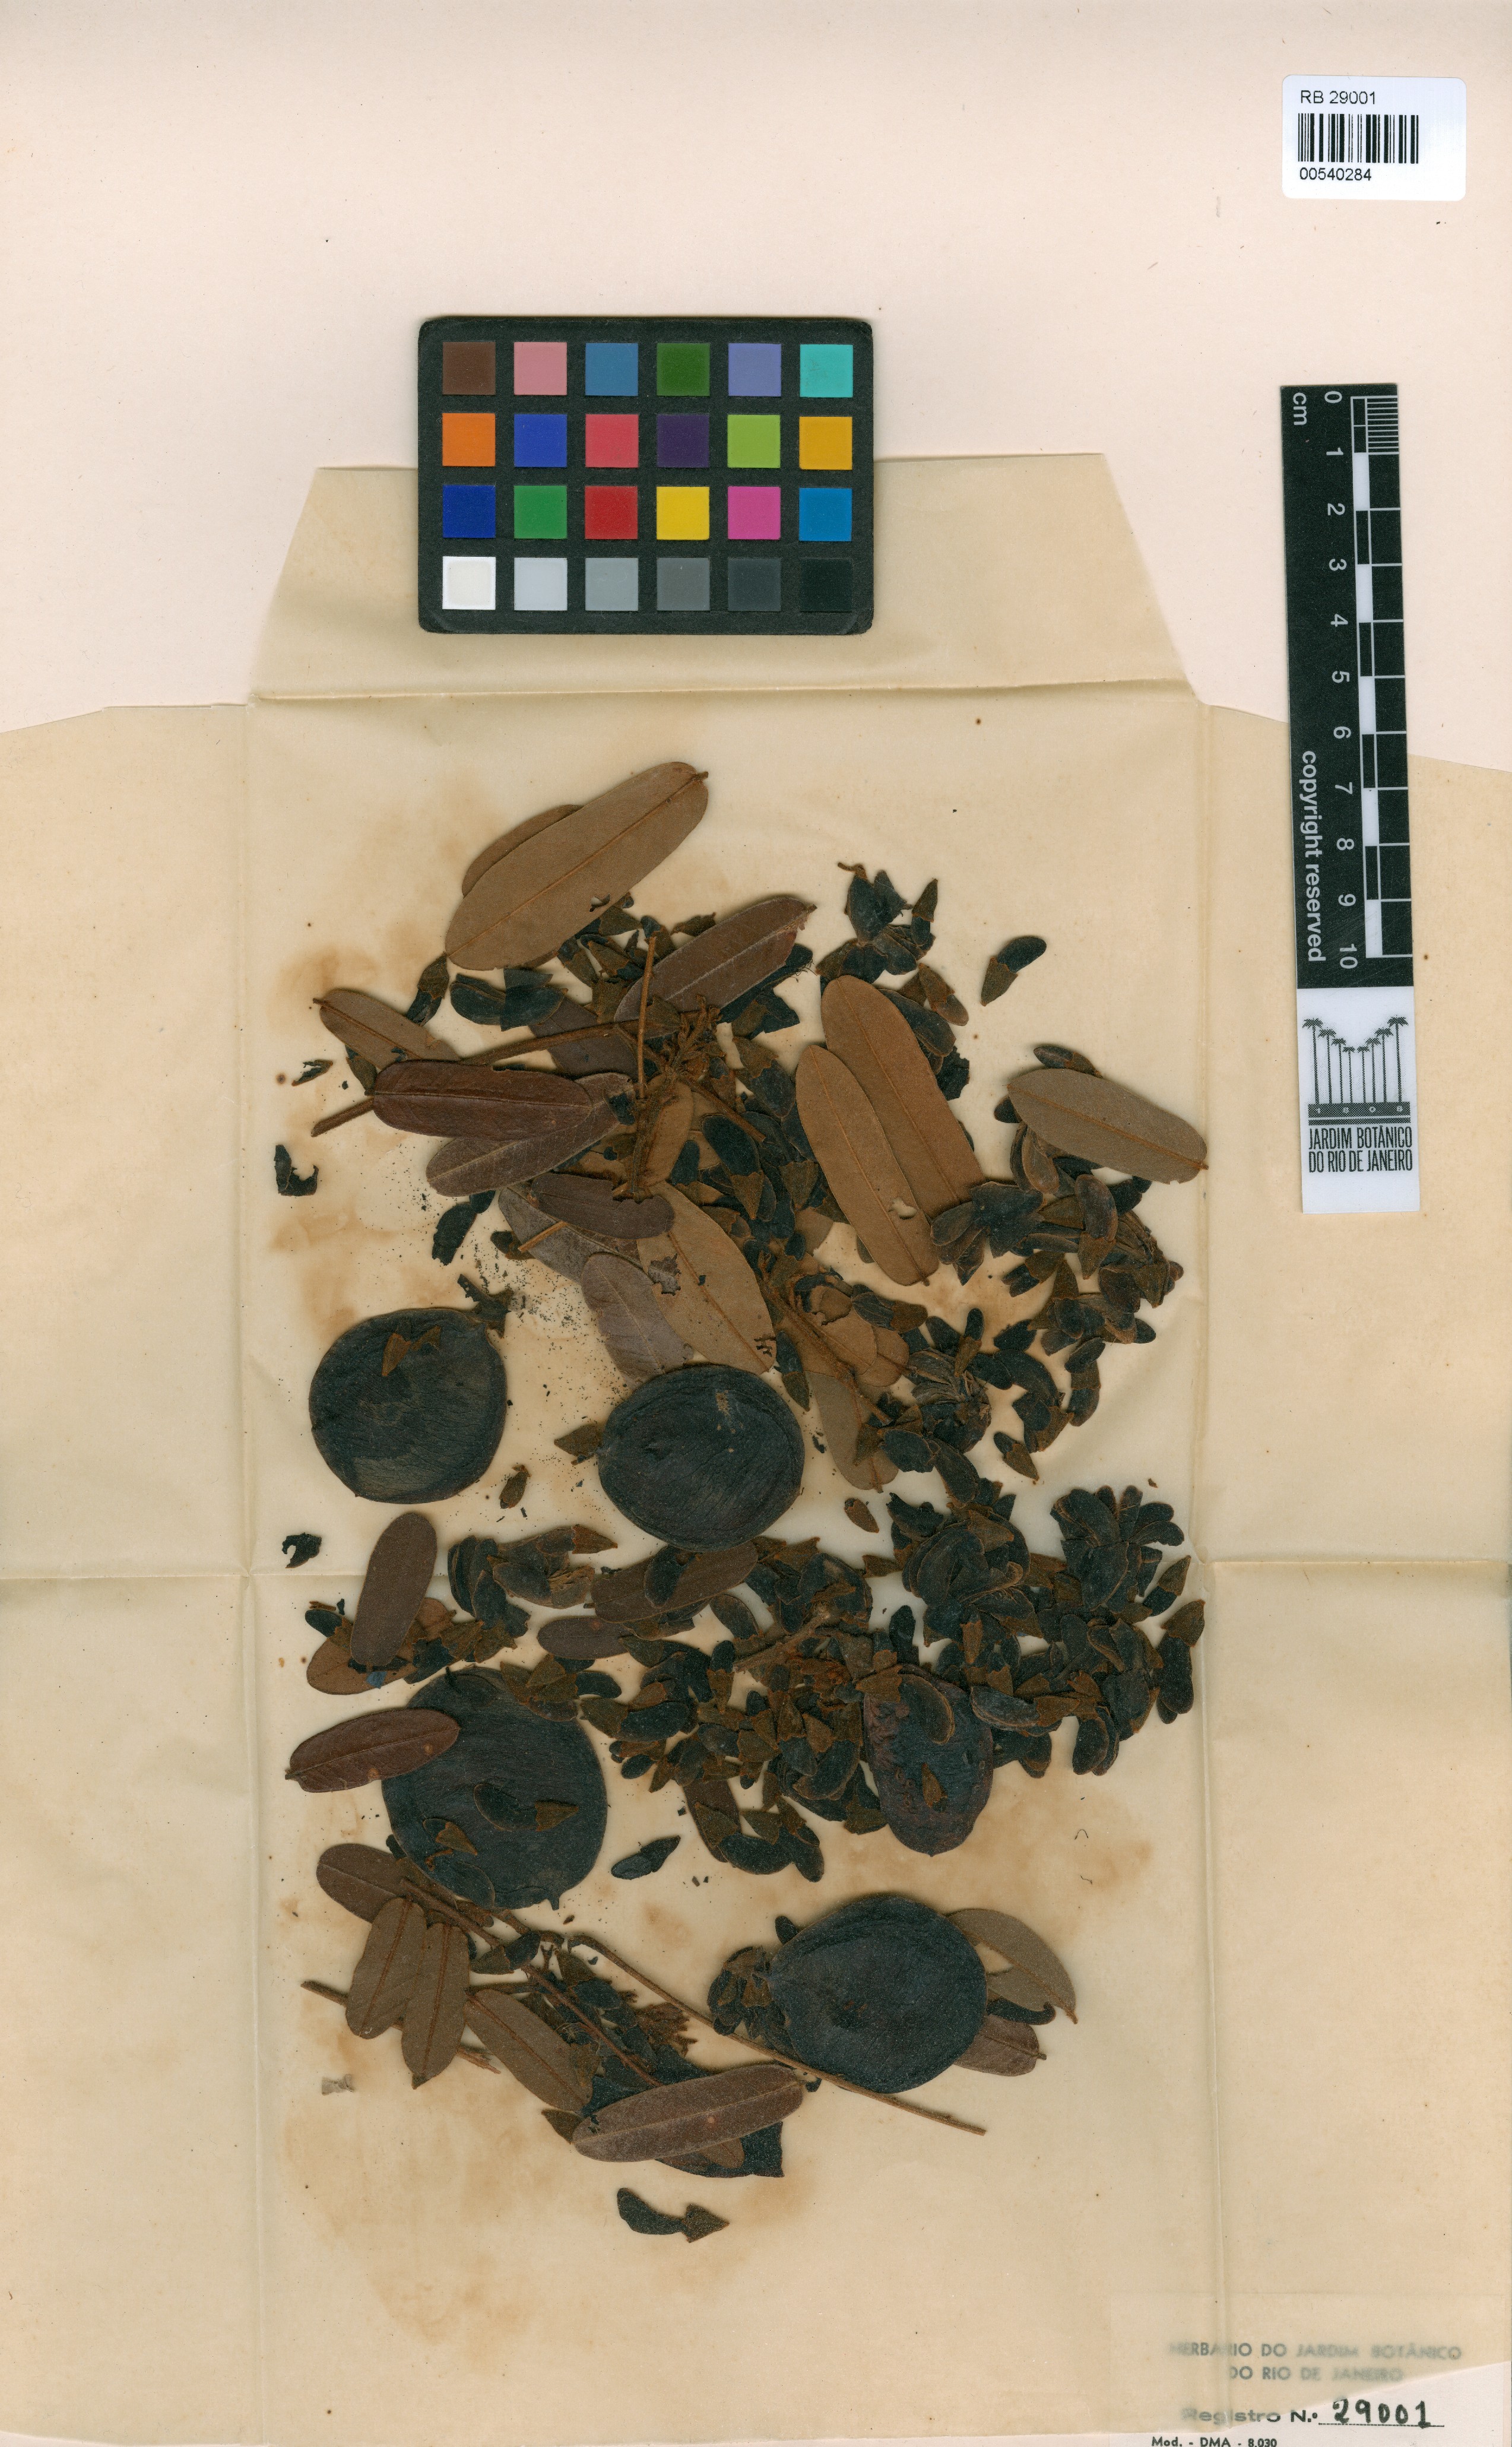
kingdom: Plantae
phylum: Tracheophyta
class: Magnoliopsida
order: Fabales
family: Fabaceae
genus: Hymenolobium
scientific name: Hymenolobium heterocarpum
